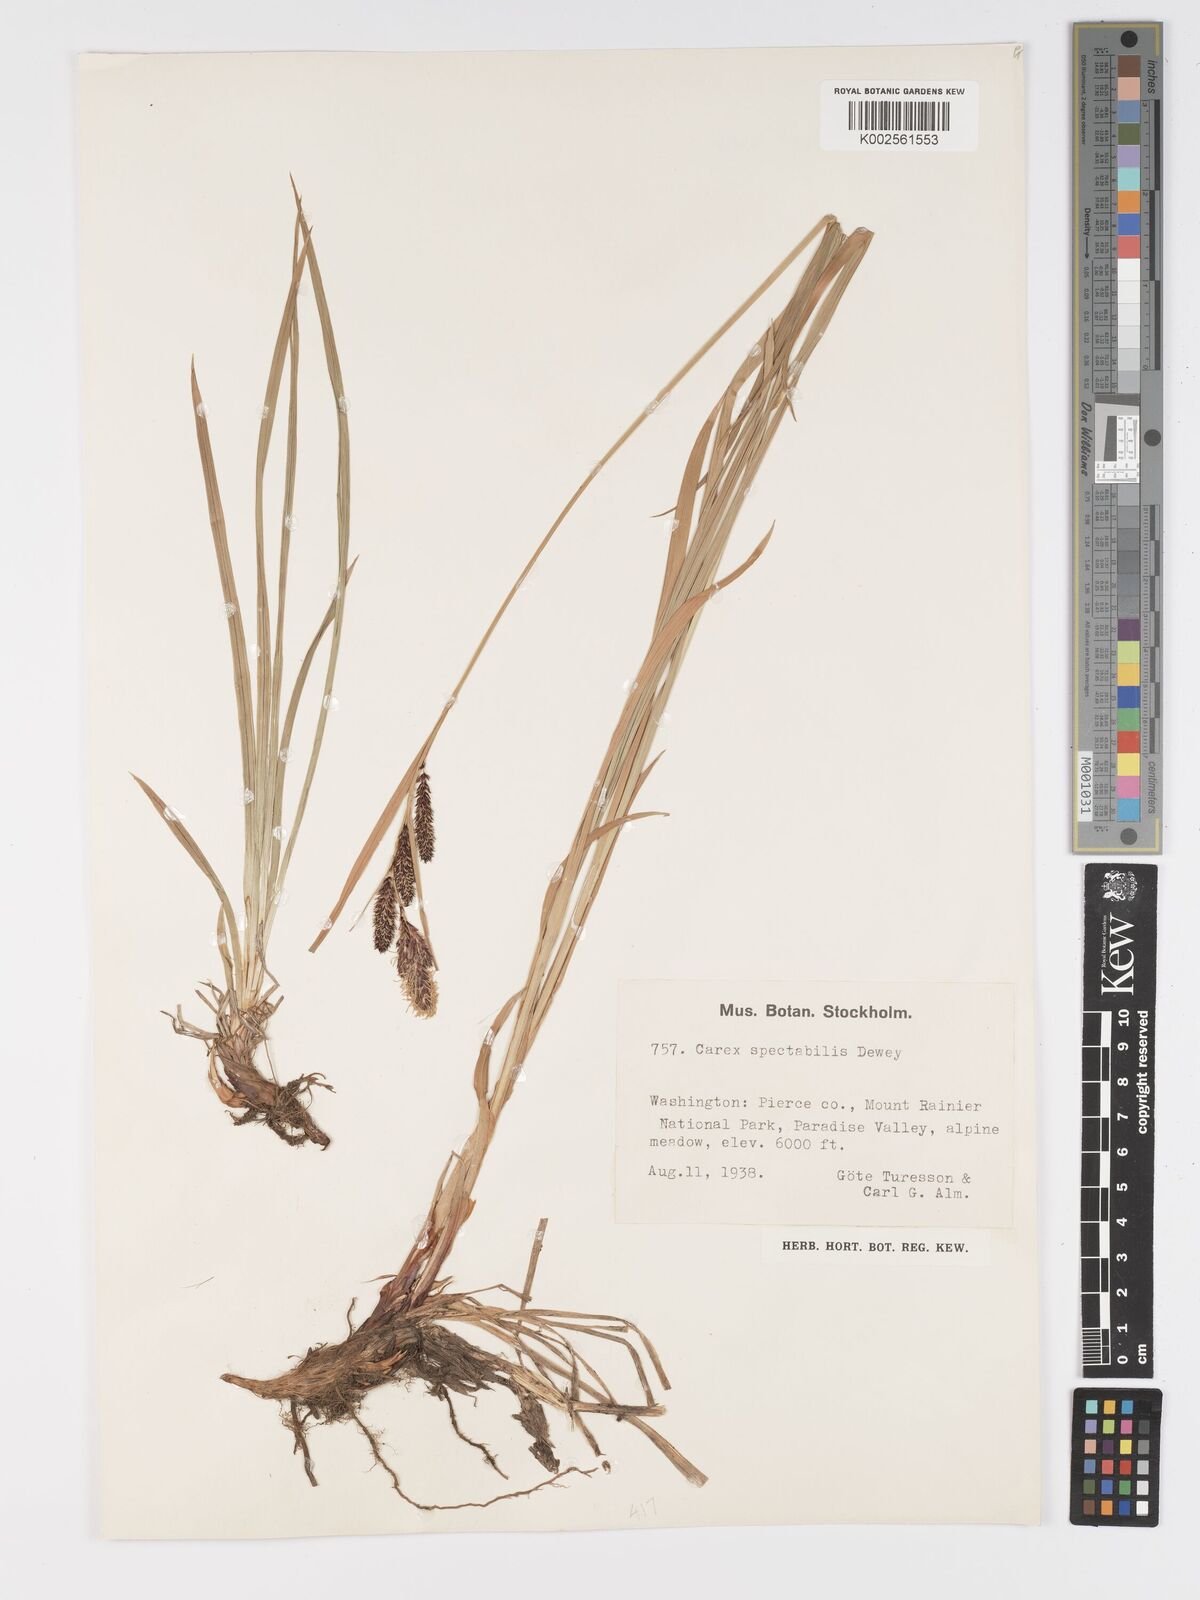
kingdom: Plantae
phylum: Tracheophyta
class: Liliopsida
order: Poales
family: Cyperaceae
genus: Carex
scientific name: Carex spectabilis
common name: Northwestern showy sedge
